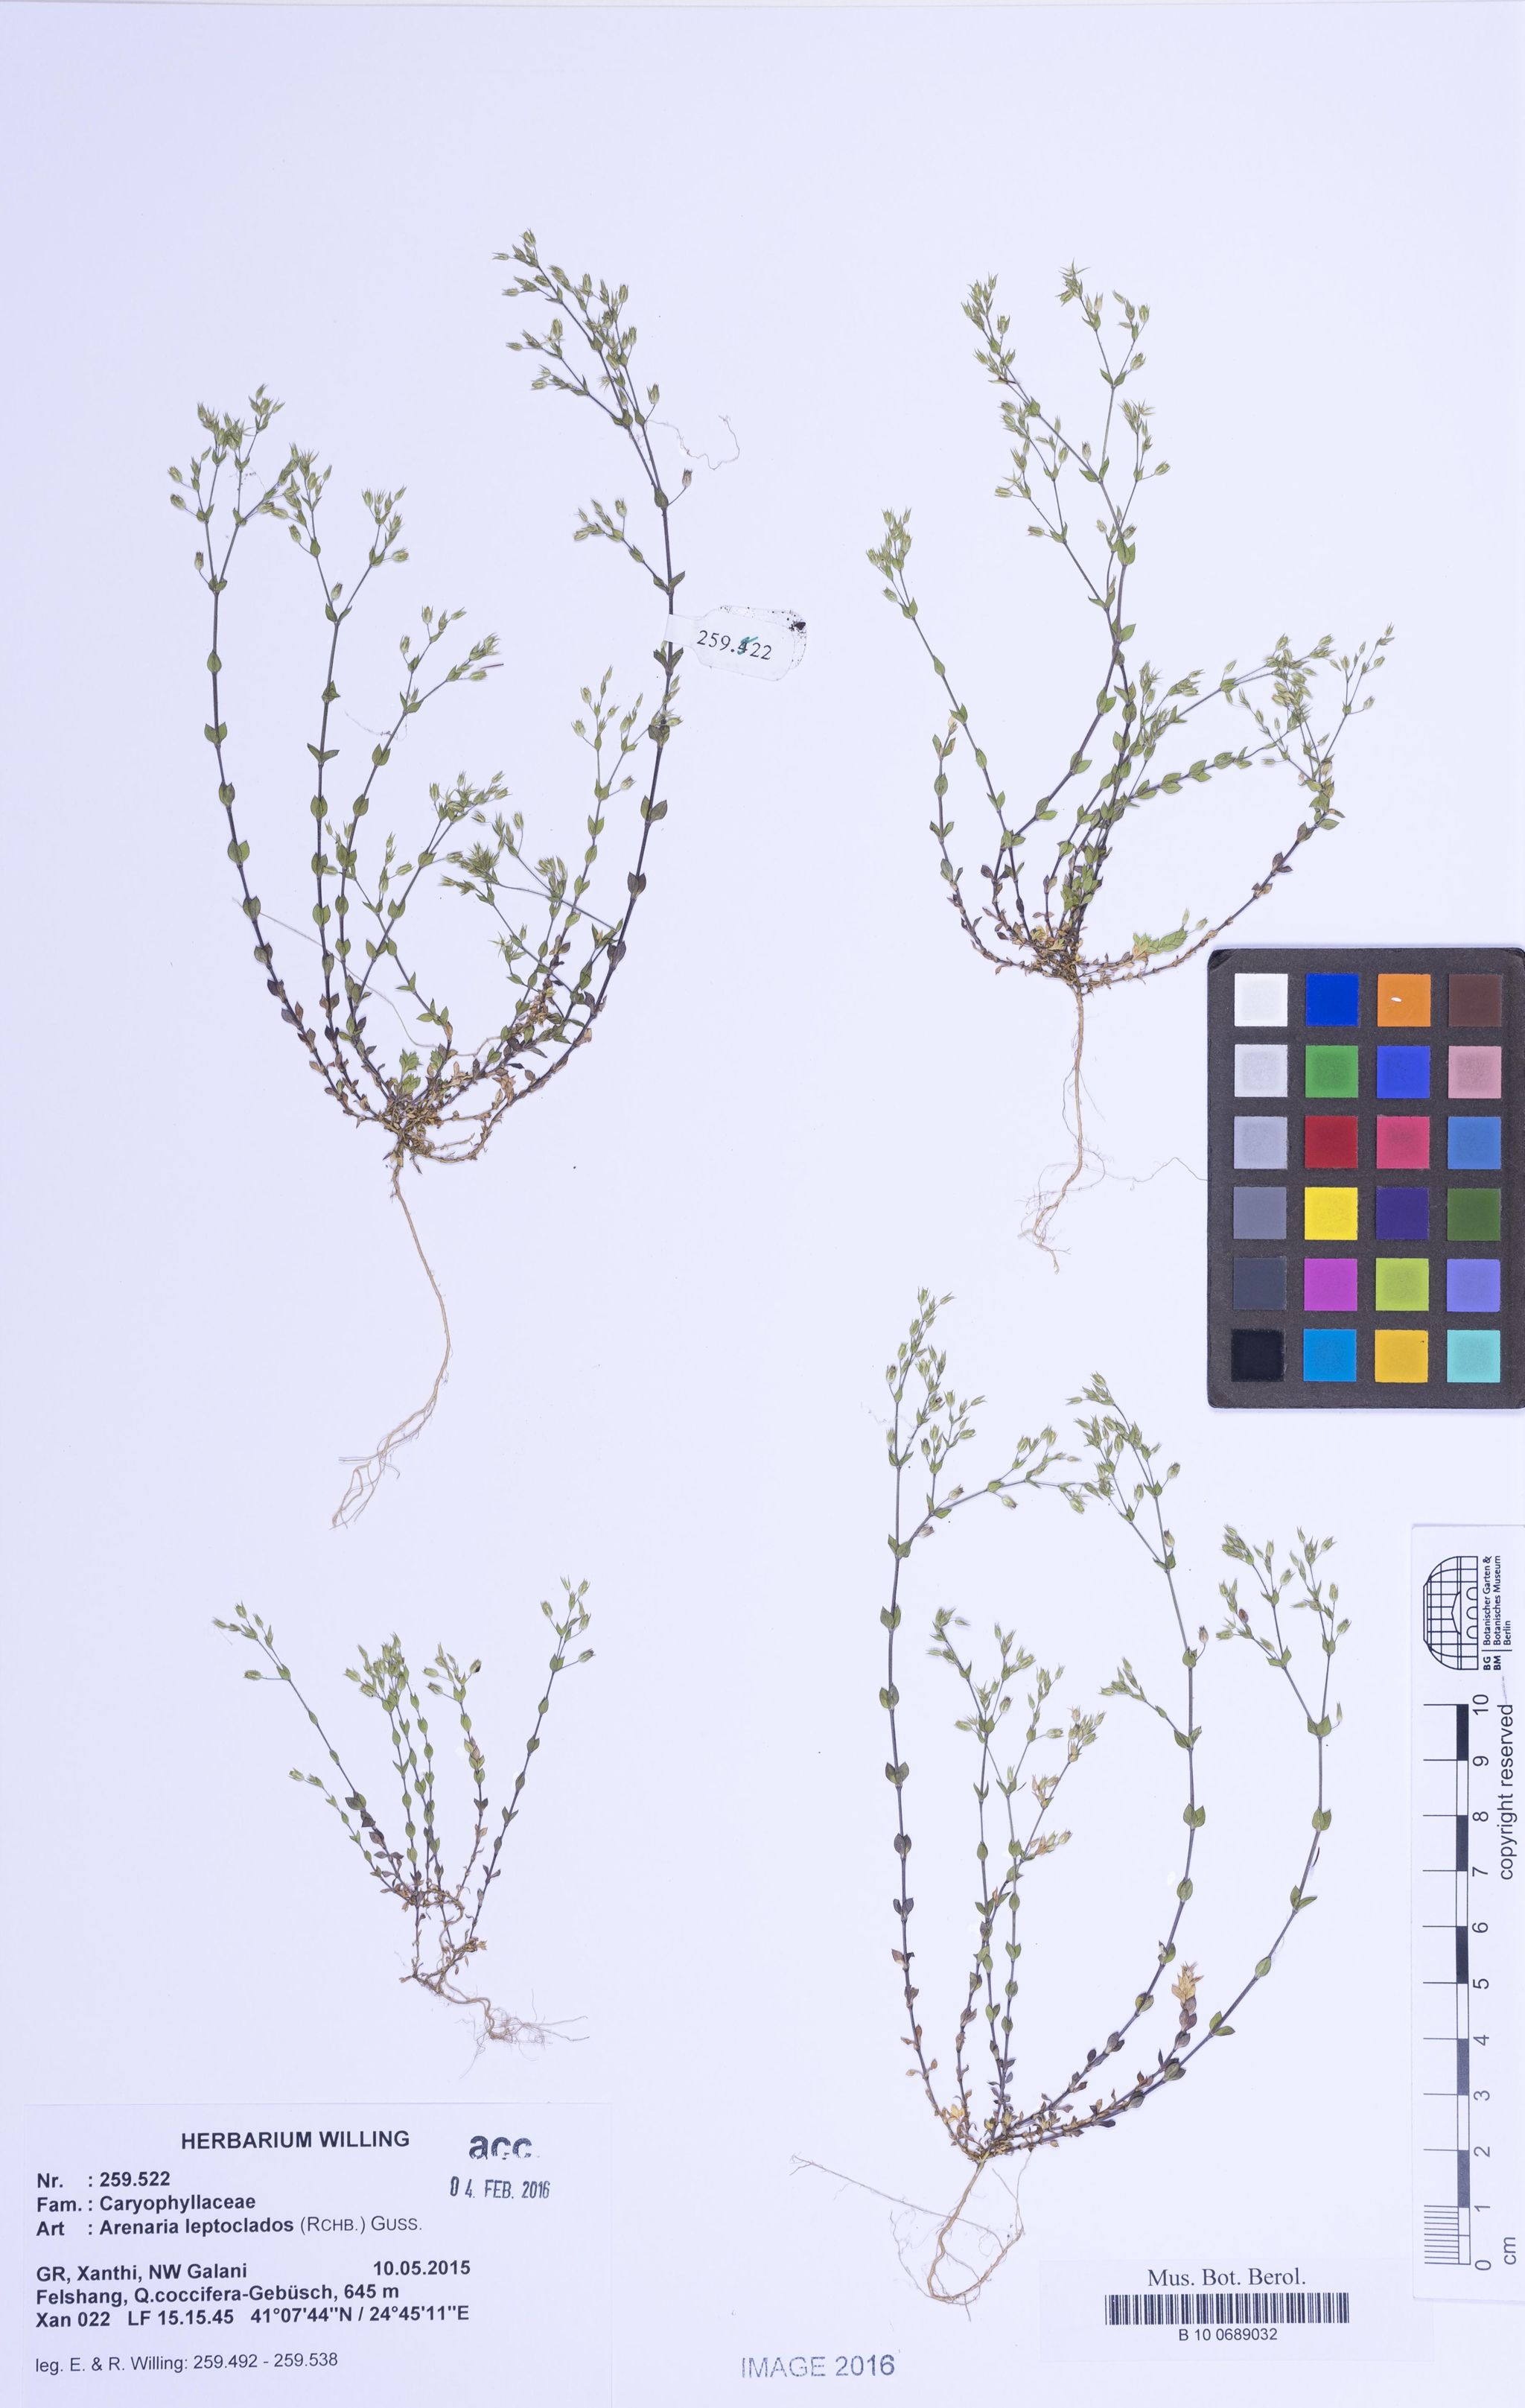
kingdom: Plantae
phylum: Tracheophyta
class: Magnoliopsida
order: Caryophyllales
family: Caryophyllaceae
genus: Arenaria
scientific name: Arenaria leptoclados
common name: Thyme-leaved sandwort
